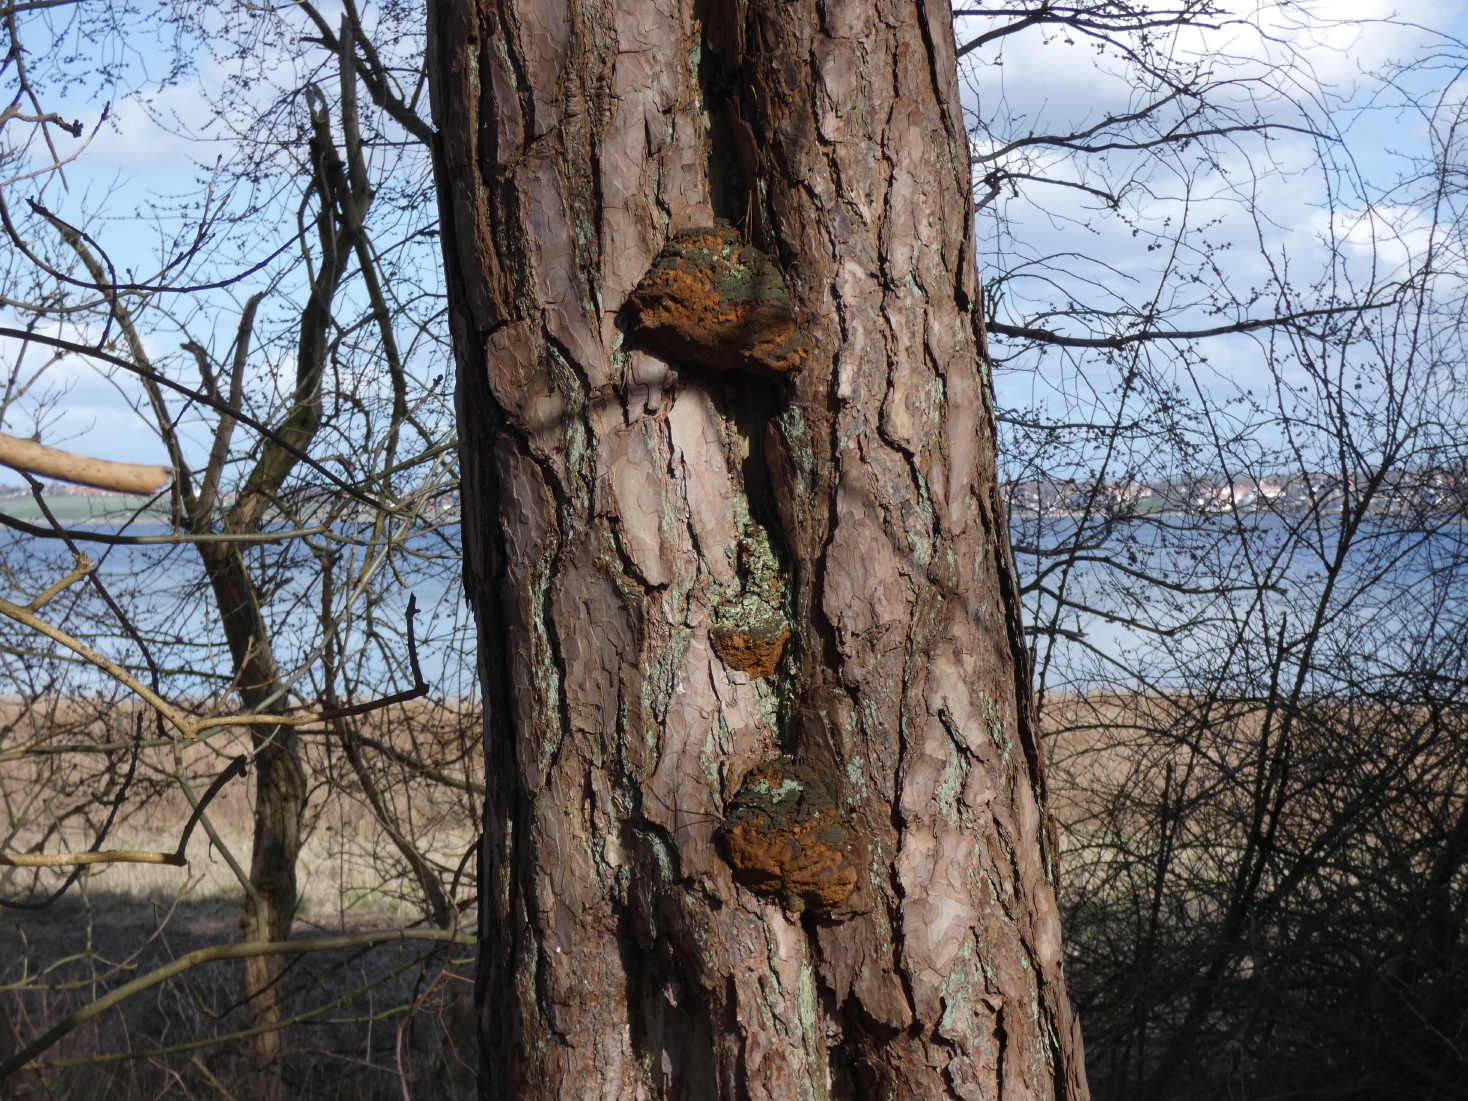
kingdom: Fungi
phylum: Basidiomycota
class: Agaricomycetes
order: Hymenochaetales
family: Hymenochaetaceae
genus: Porodaedalea
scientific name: Porodaedalea pini
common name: fyrre-ildporesvamp
